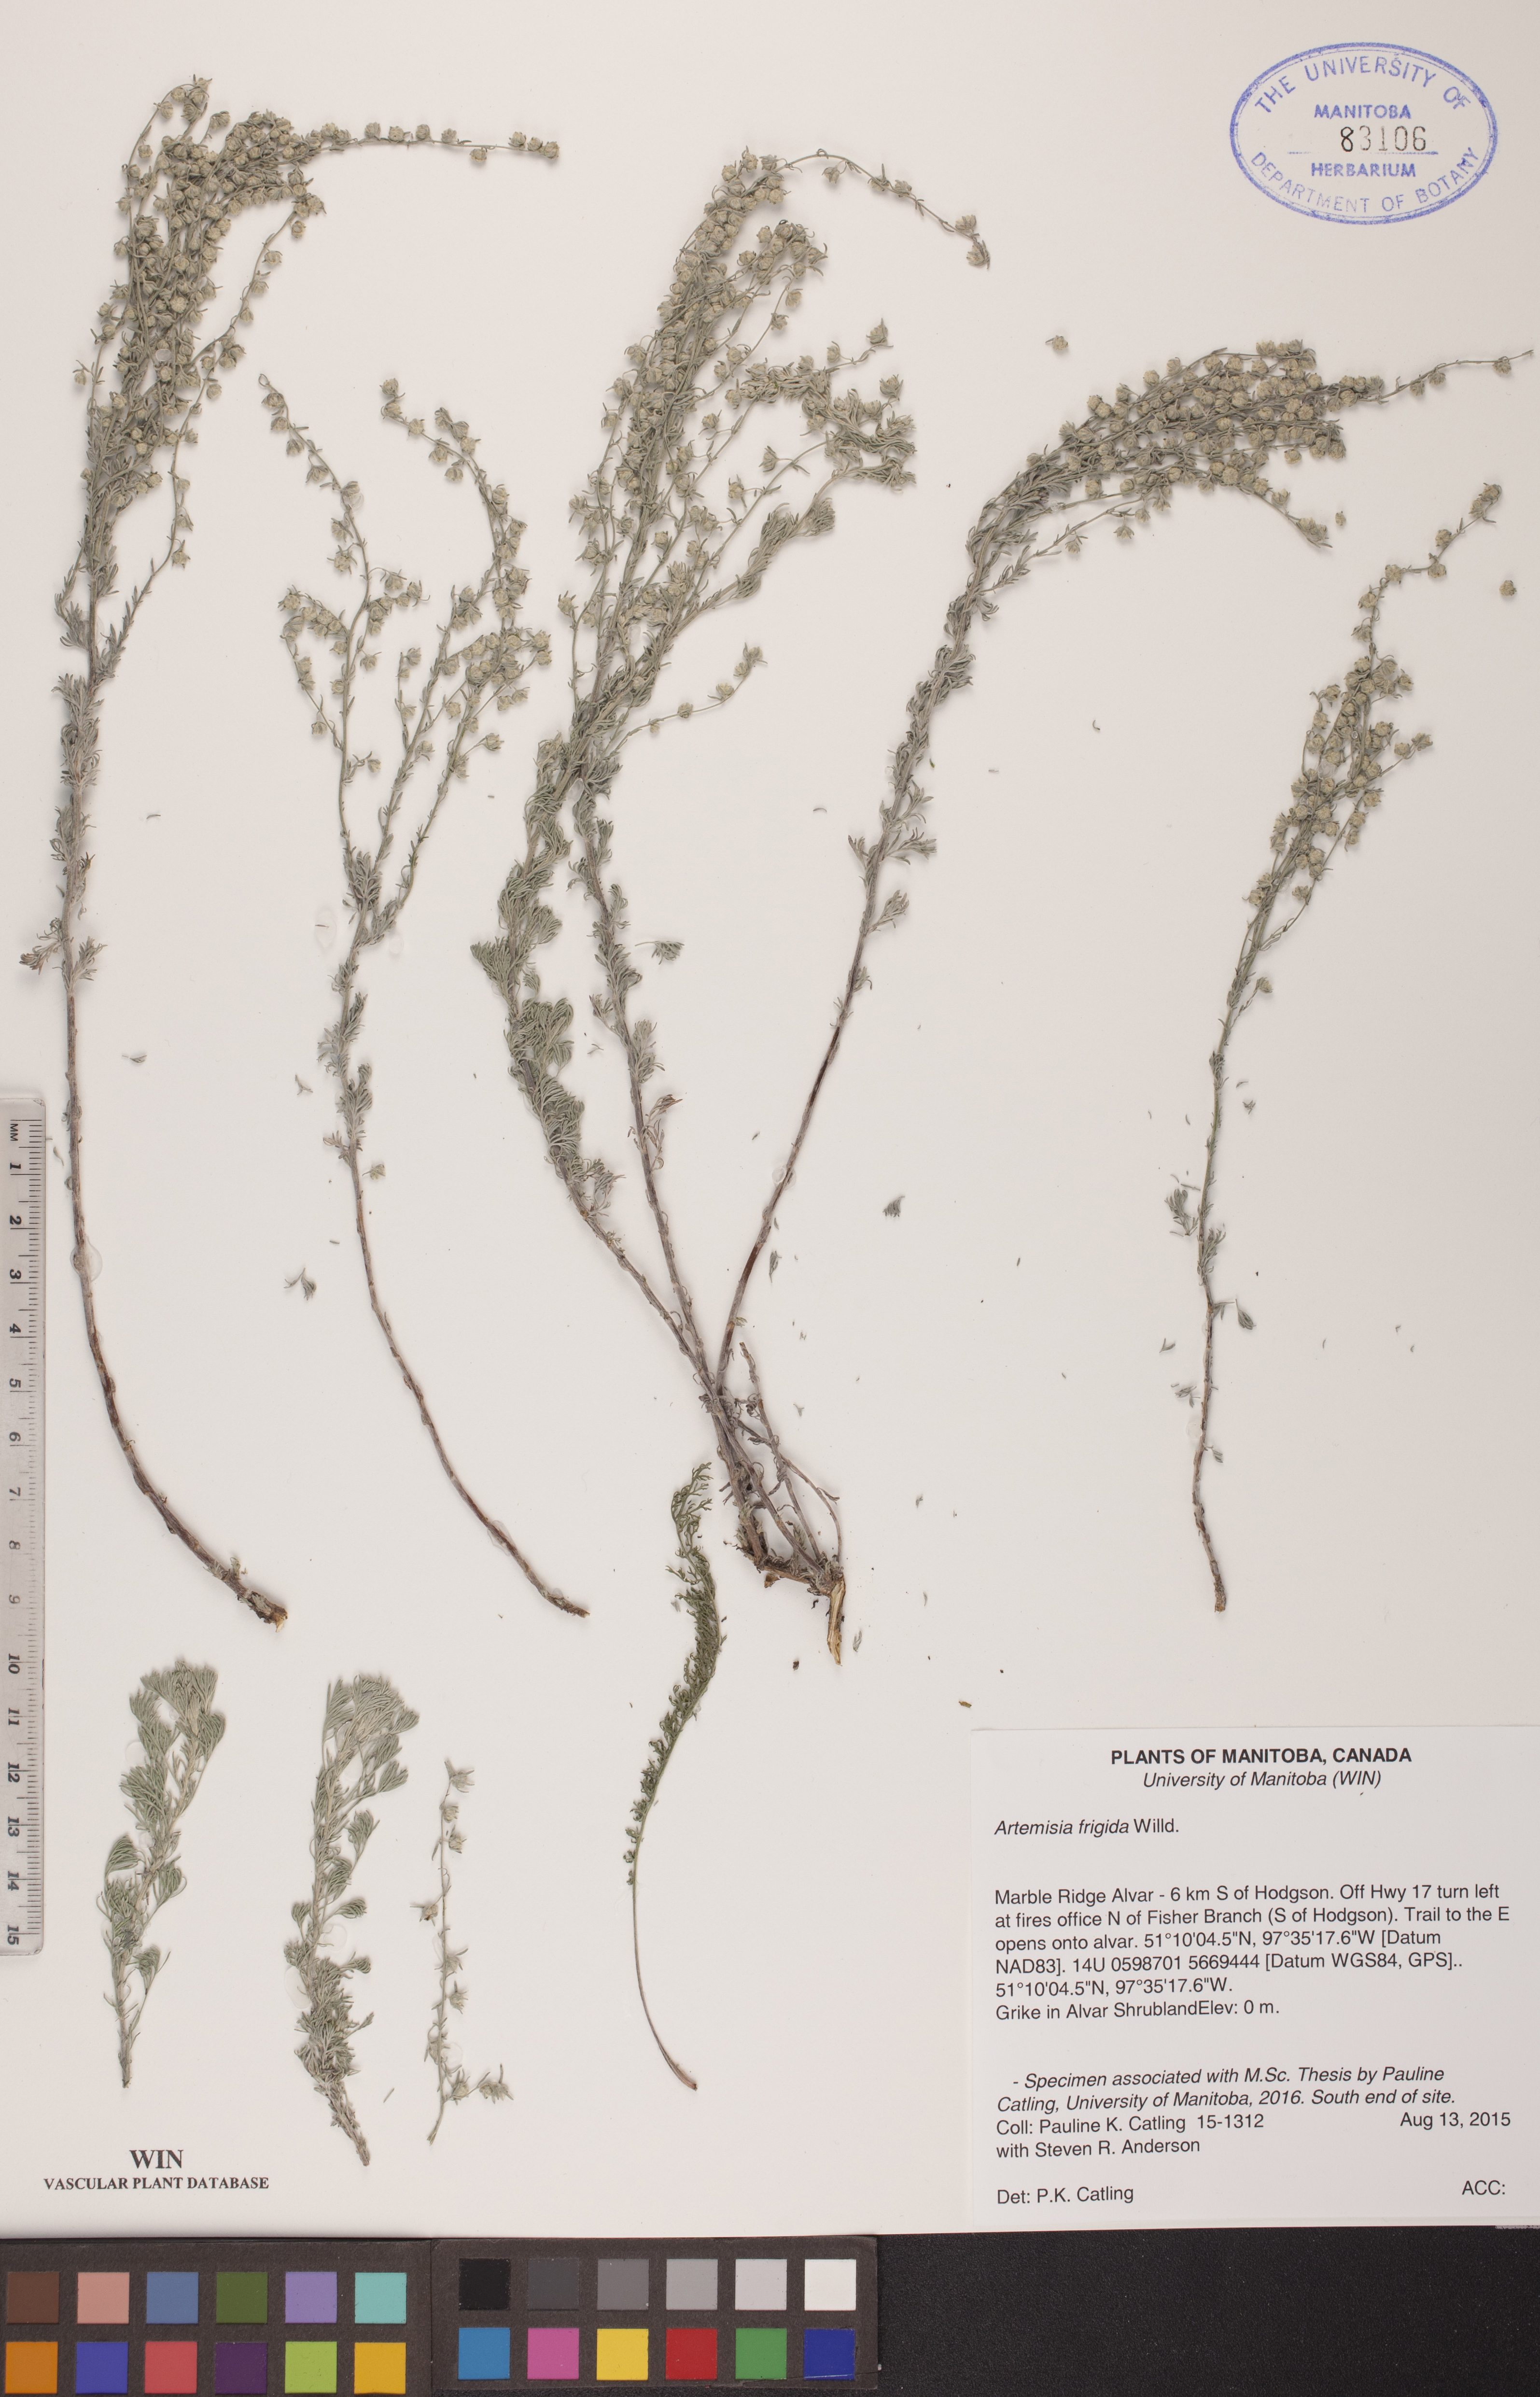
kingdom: Plantae
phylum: Tracheophyta
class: Magnoliopsida
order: Asterales
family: Asteraceae
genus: Artemisia
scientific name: Artemisia frigida
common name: Prairie sagewort
